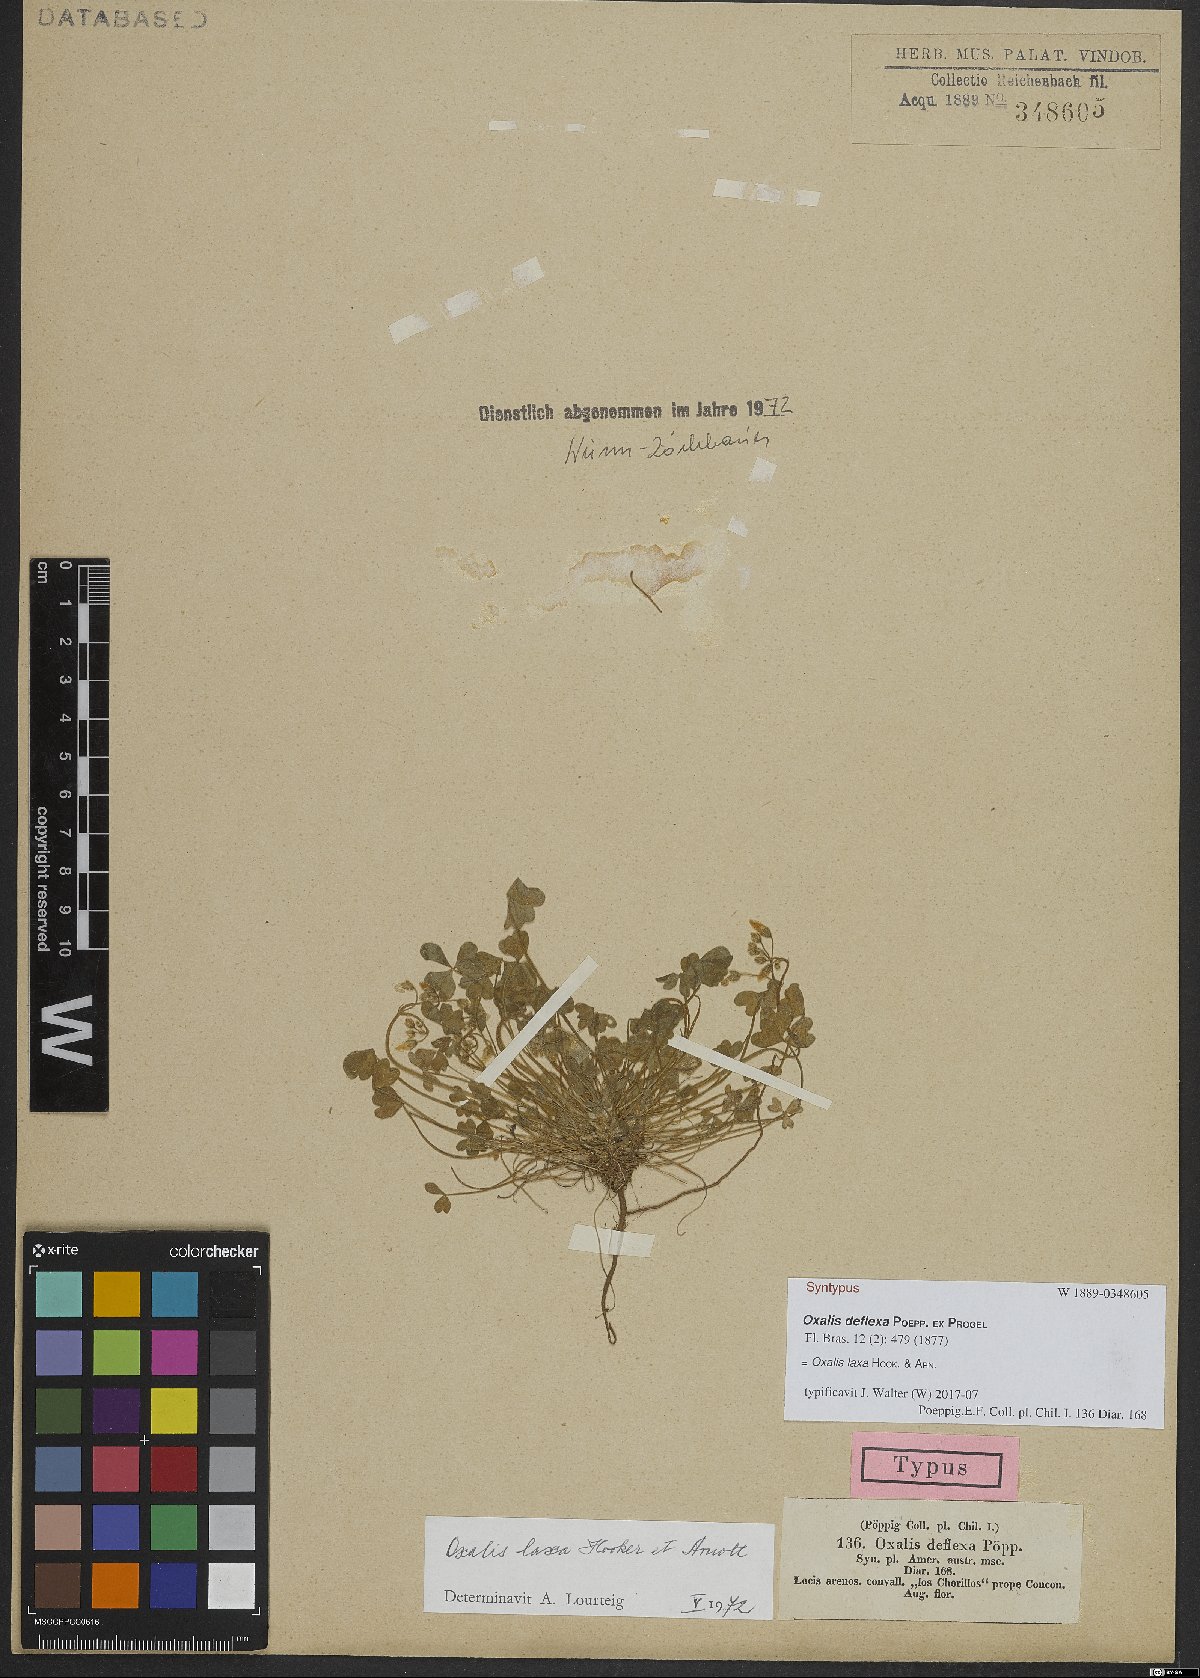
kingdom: Plantae
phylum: Tracheophyta
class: Magnoliopsida
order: Oxalidales
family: Oxalidaceae
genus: Oxalis
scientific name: Oxalis micrantha
